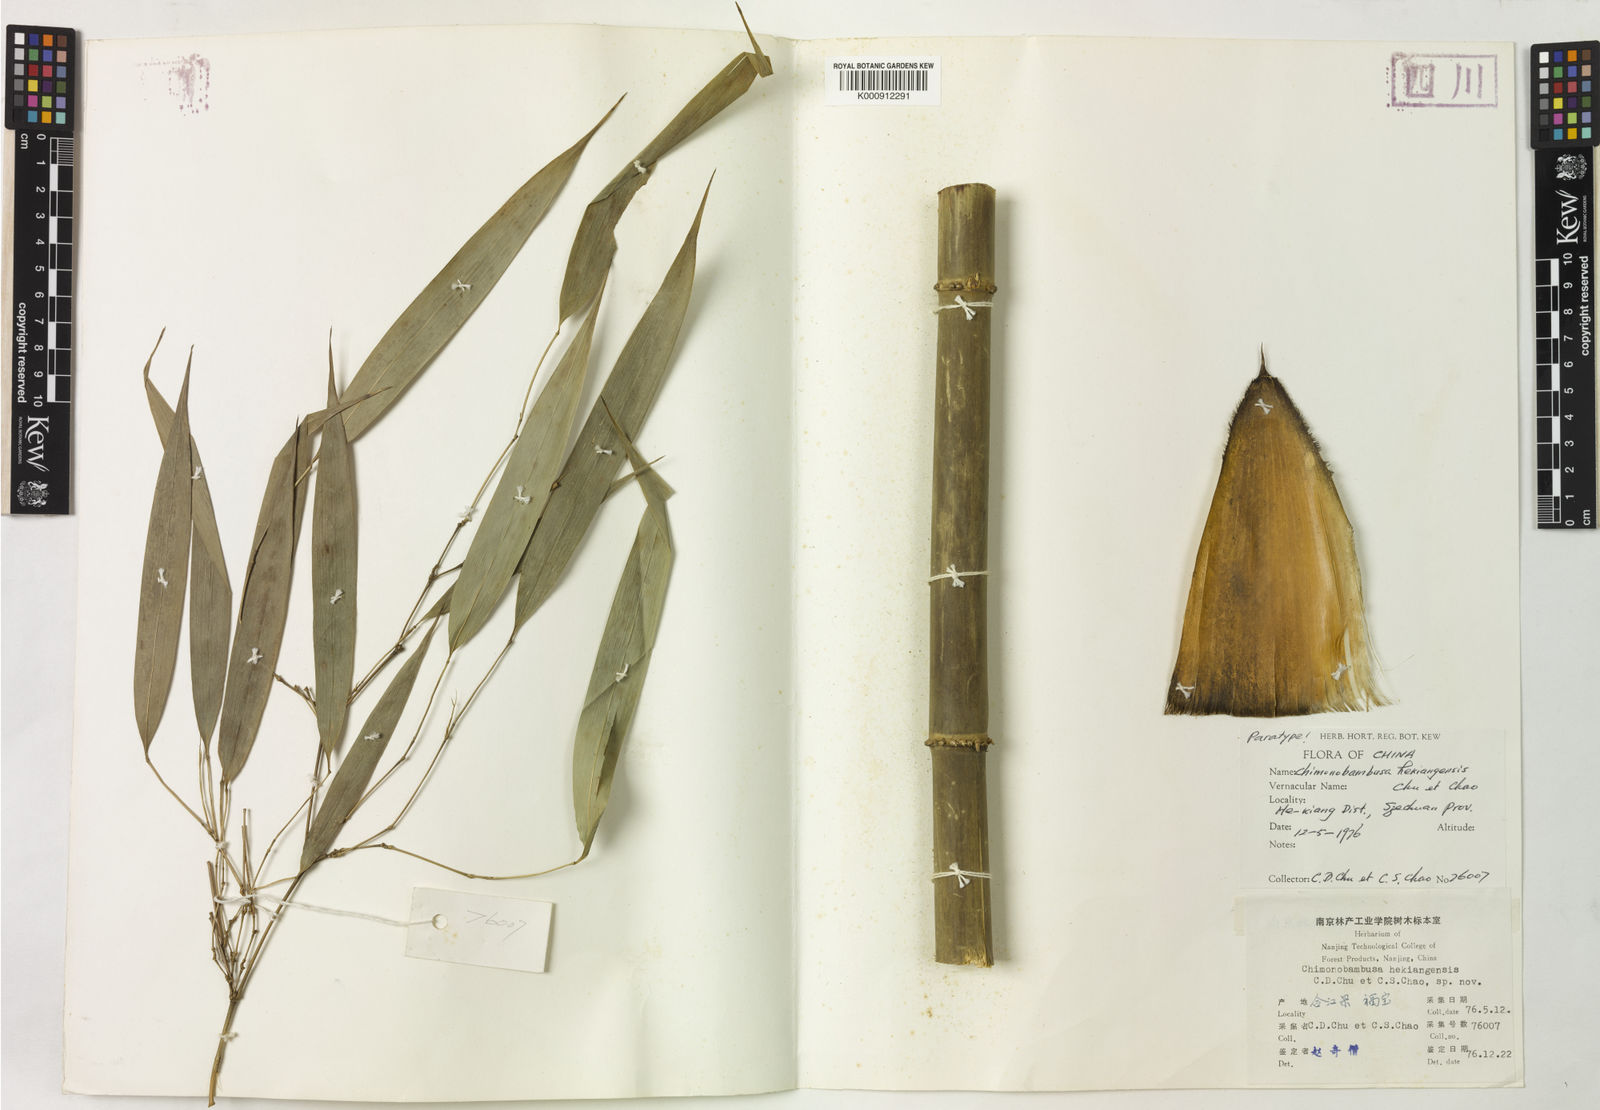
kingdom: Plantae
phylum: Tracheophyta
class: Liliopsida
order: Poales
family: Poaceae
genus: Chimonobambusa
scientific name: Chimonobambusa hejiangensis
